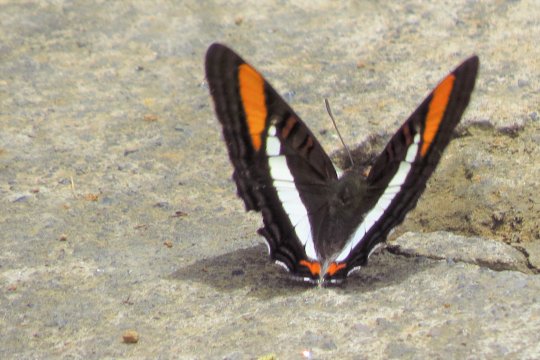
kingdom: Animalia
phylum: Arthropoda
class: Insecta
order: Lepidoptera
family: Nymphalidae
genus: Limenitis
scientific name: Limenitis diocles
